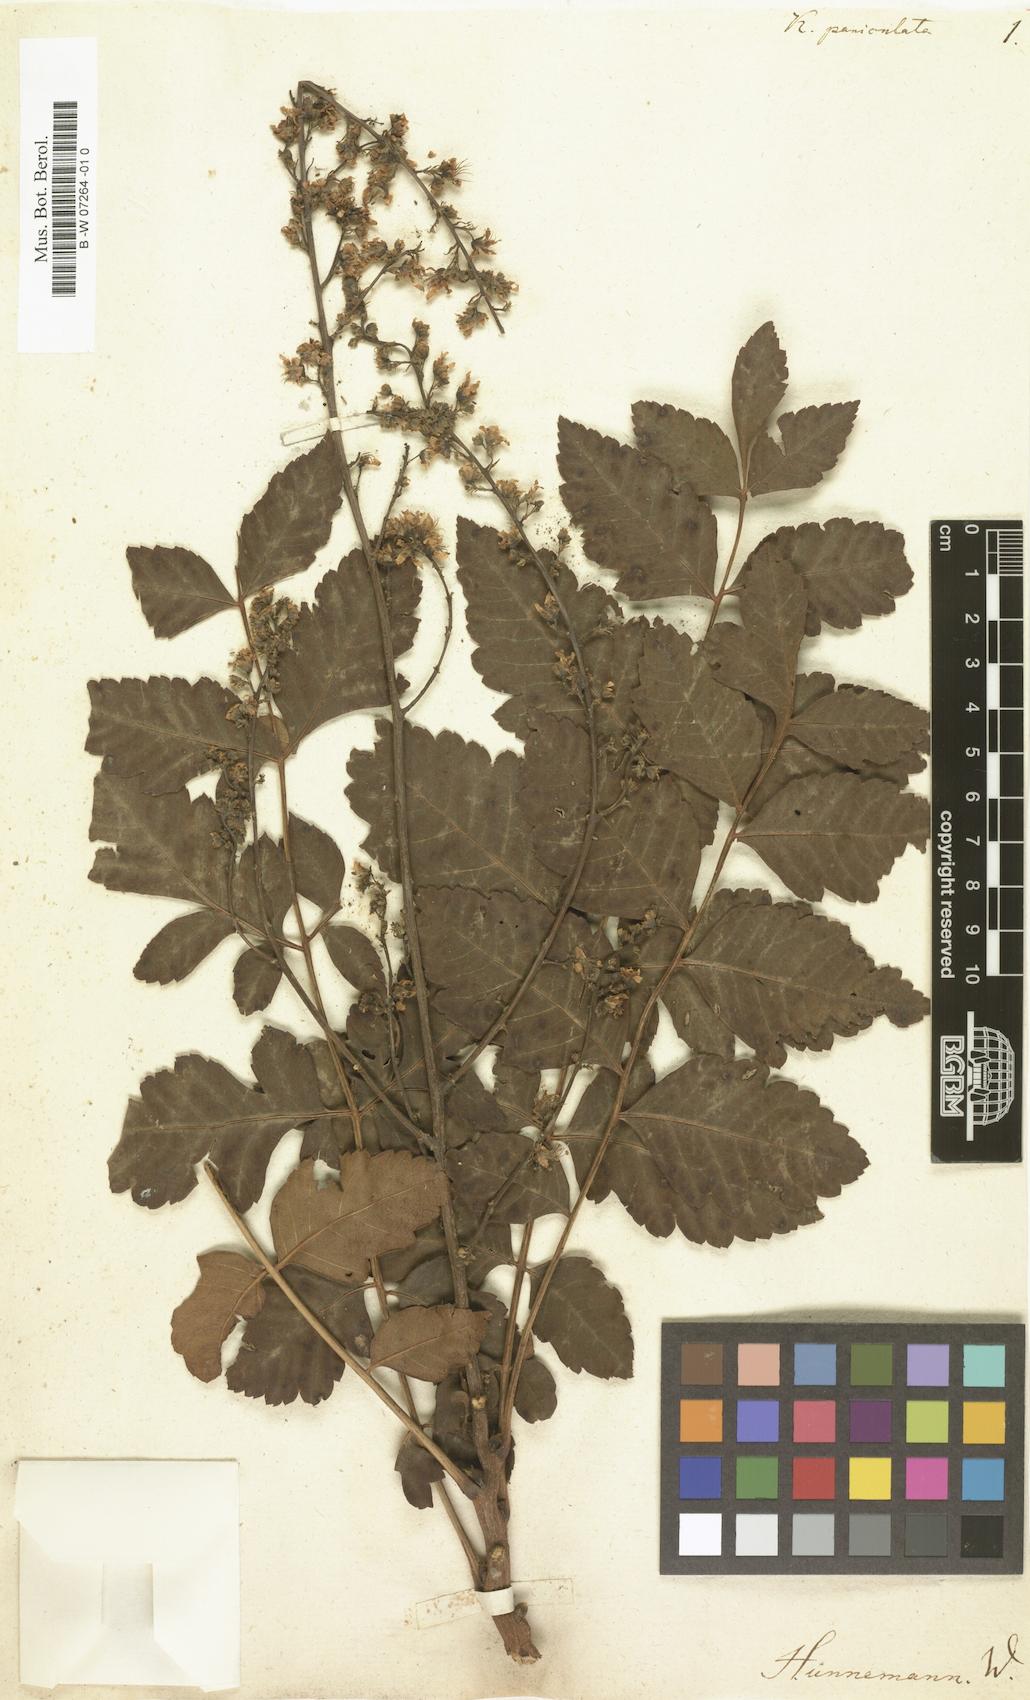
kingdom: Plantae
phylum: Tracheophyta
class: Magnoliopsida
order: Sapindales
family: Sapindaceae
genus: Koelreuteria
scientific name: Koelreuteria paniculata
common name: Pride-of-india
